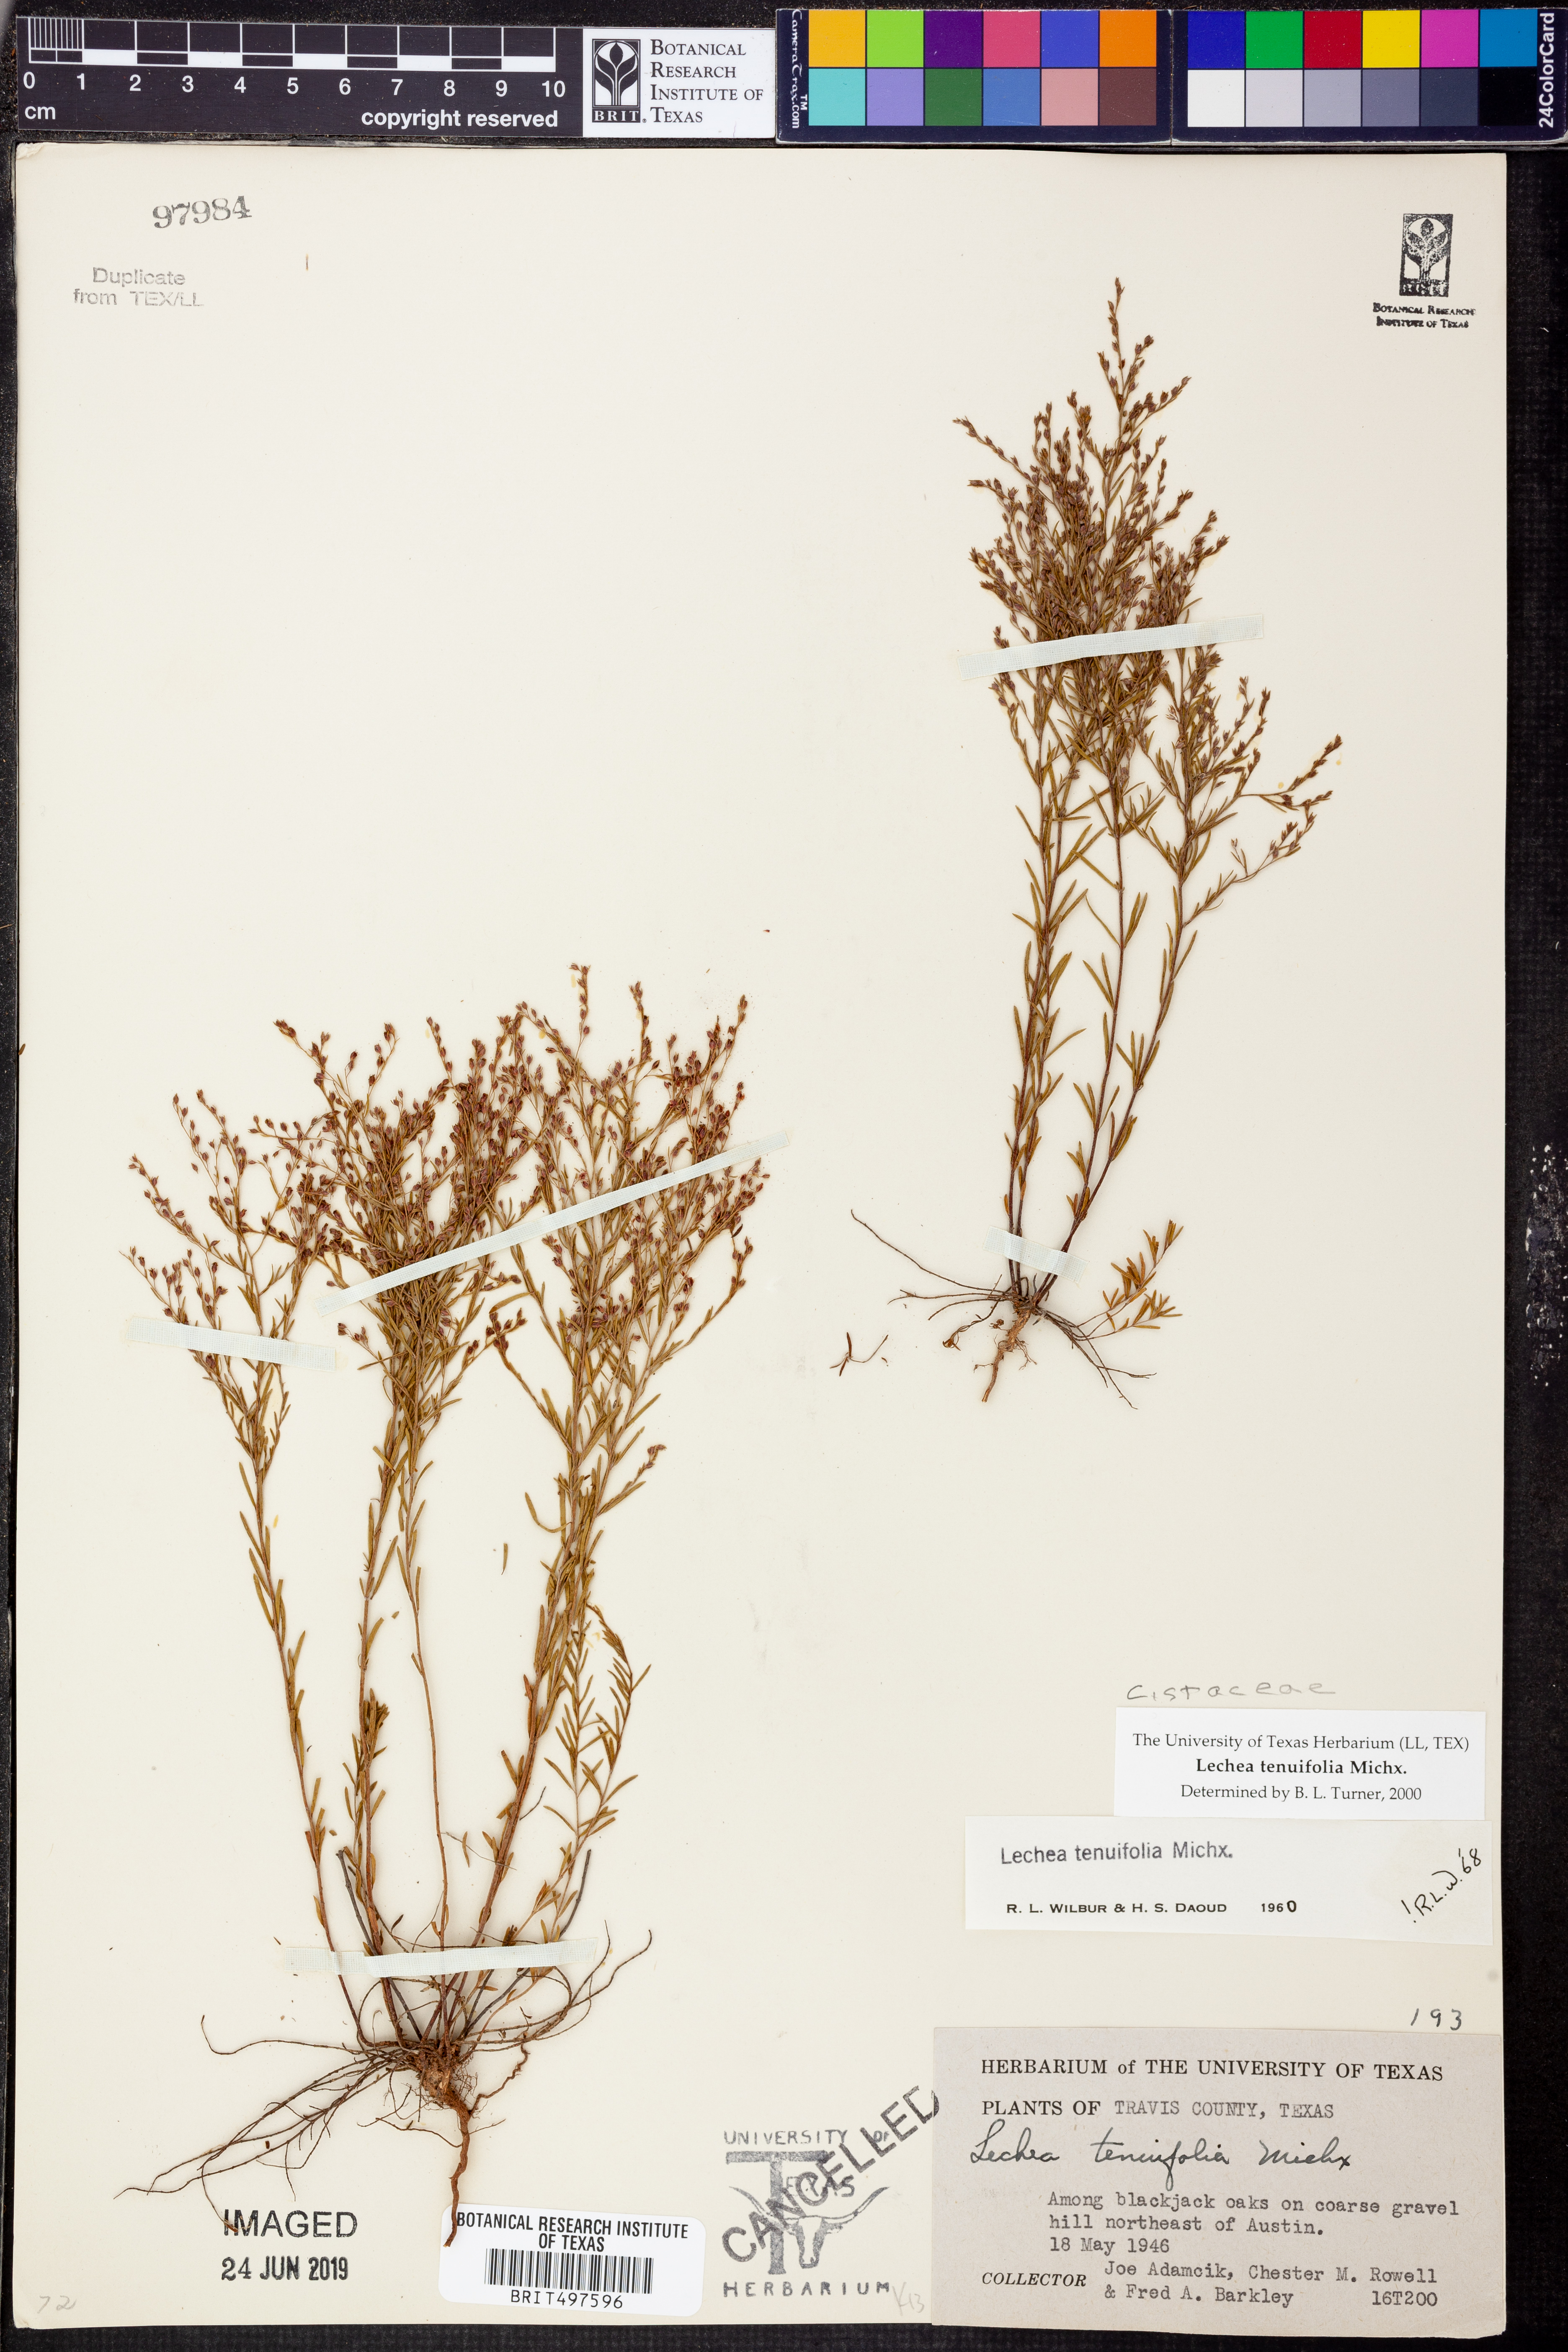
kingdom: Plantae
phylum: Tracheophyta
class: Magnoliopsida
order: Malvales
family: Cistaceae
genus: Lechea
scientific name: Lechea tenuifolia
